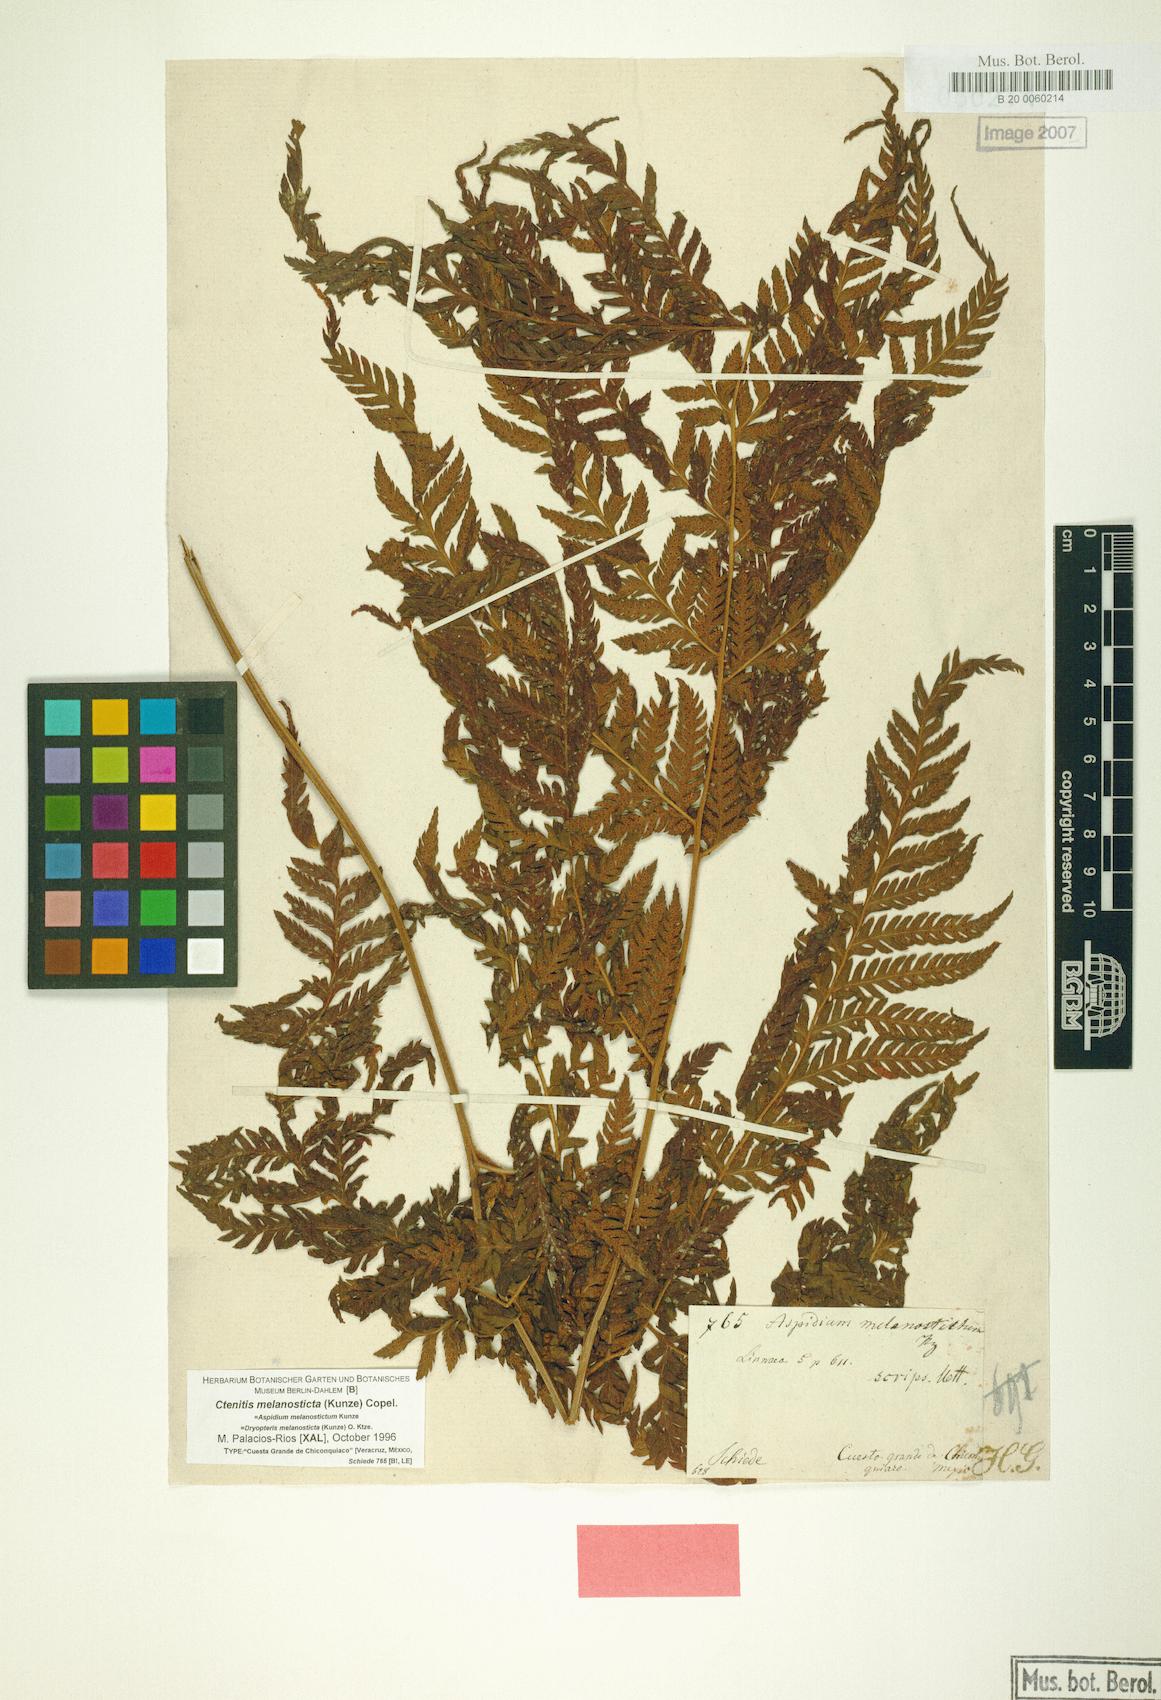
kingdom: Plantae
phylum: Tracheophyta
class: Polypodiopsida
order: Polypodiales
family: Dryopteridaceae
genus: Ctenitis
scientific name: Ctenitis melanosticta
